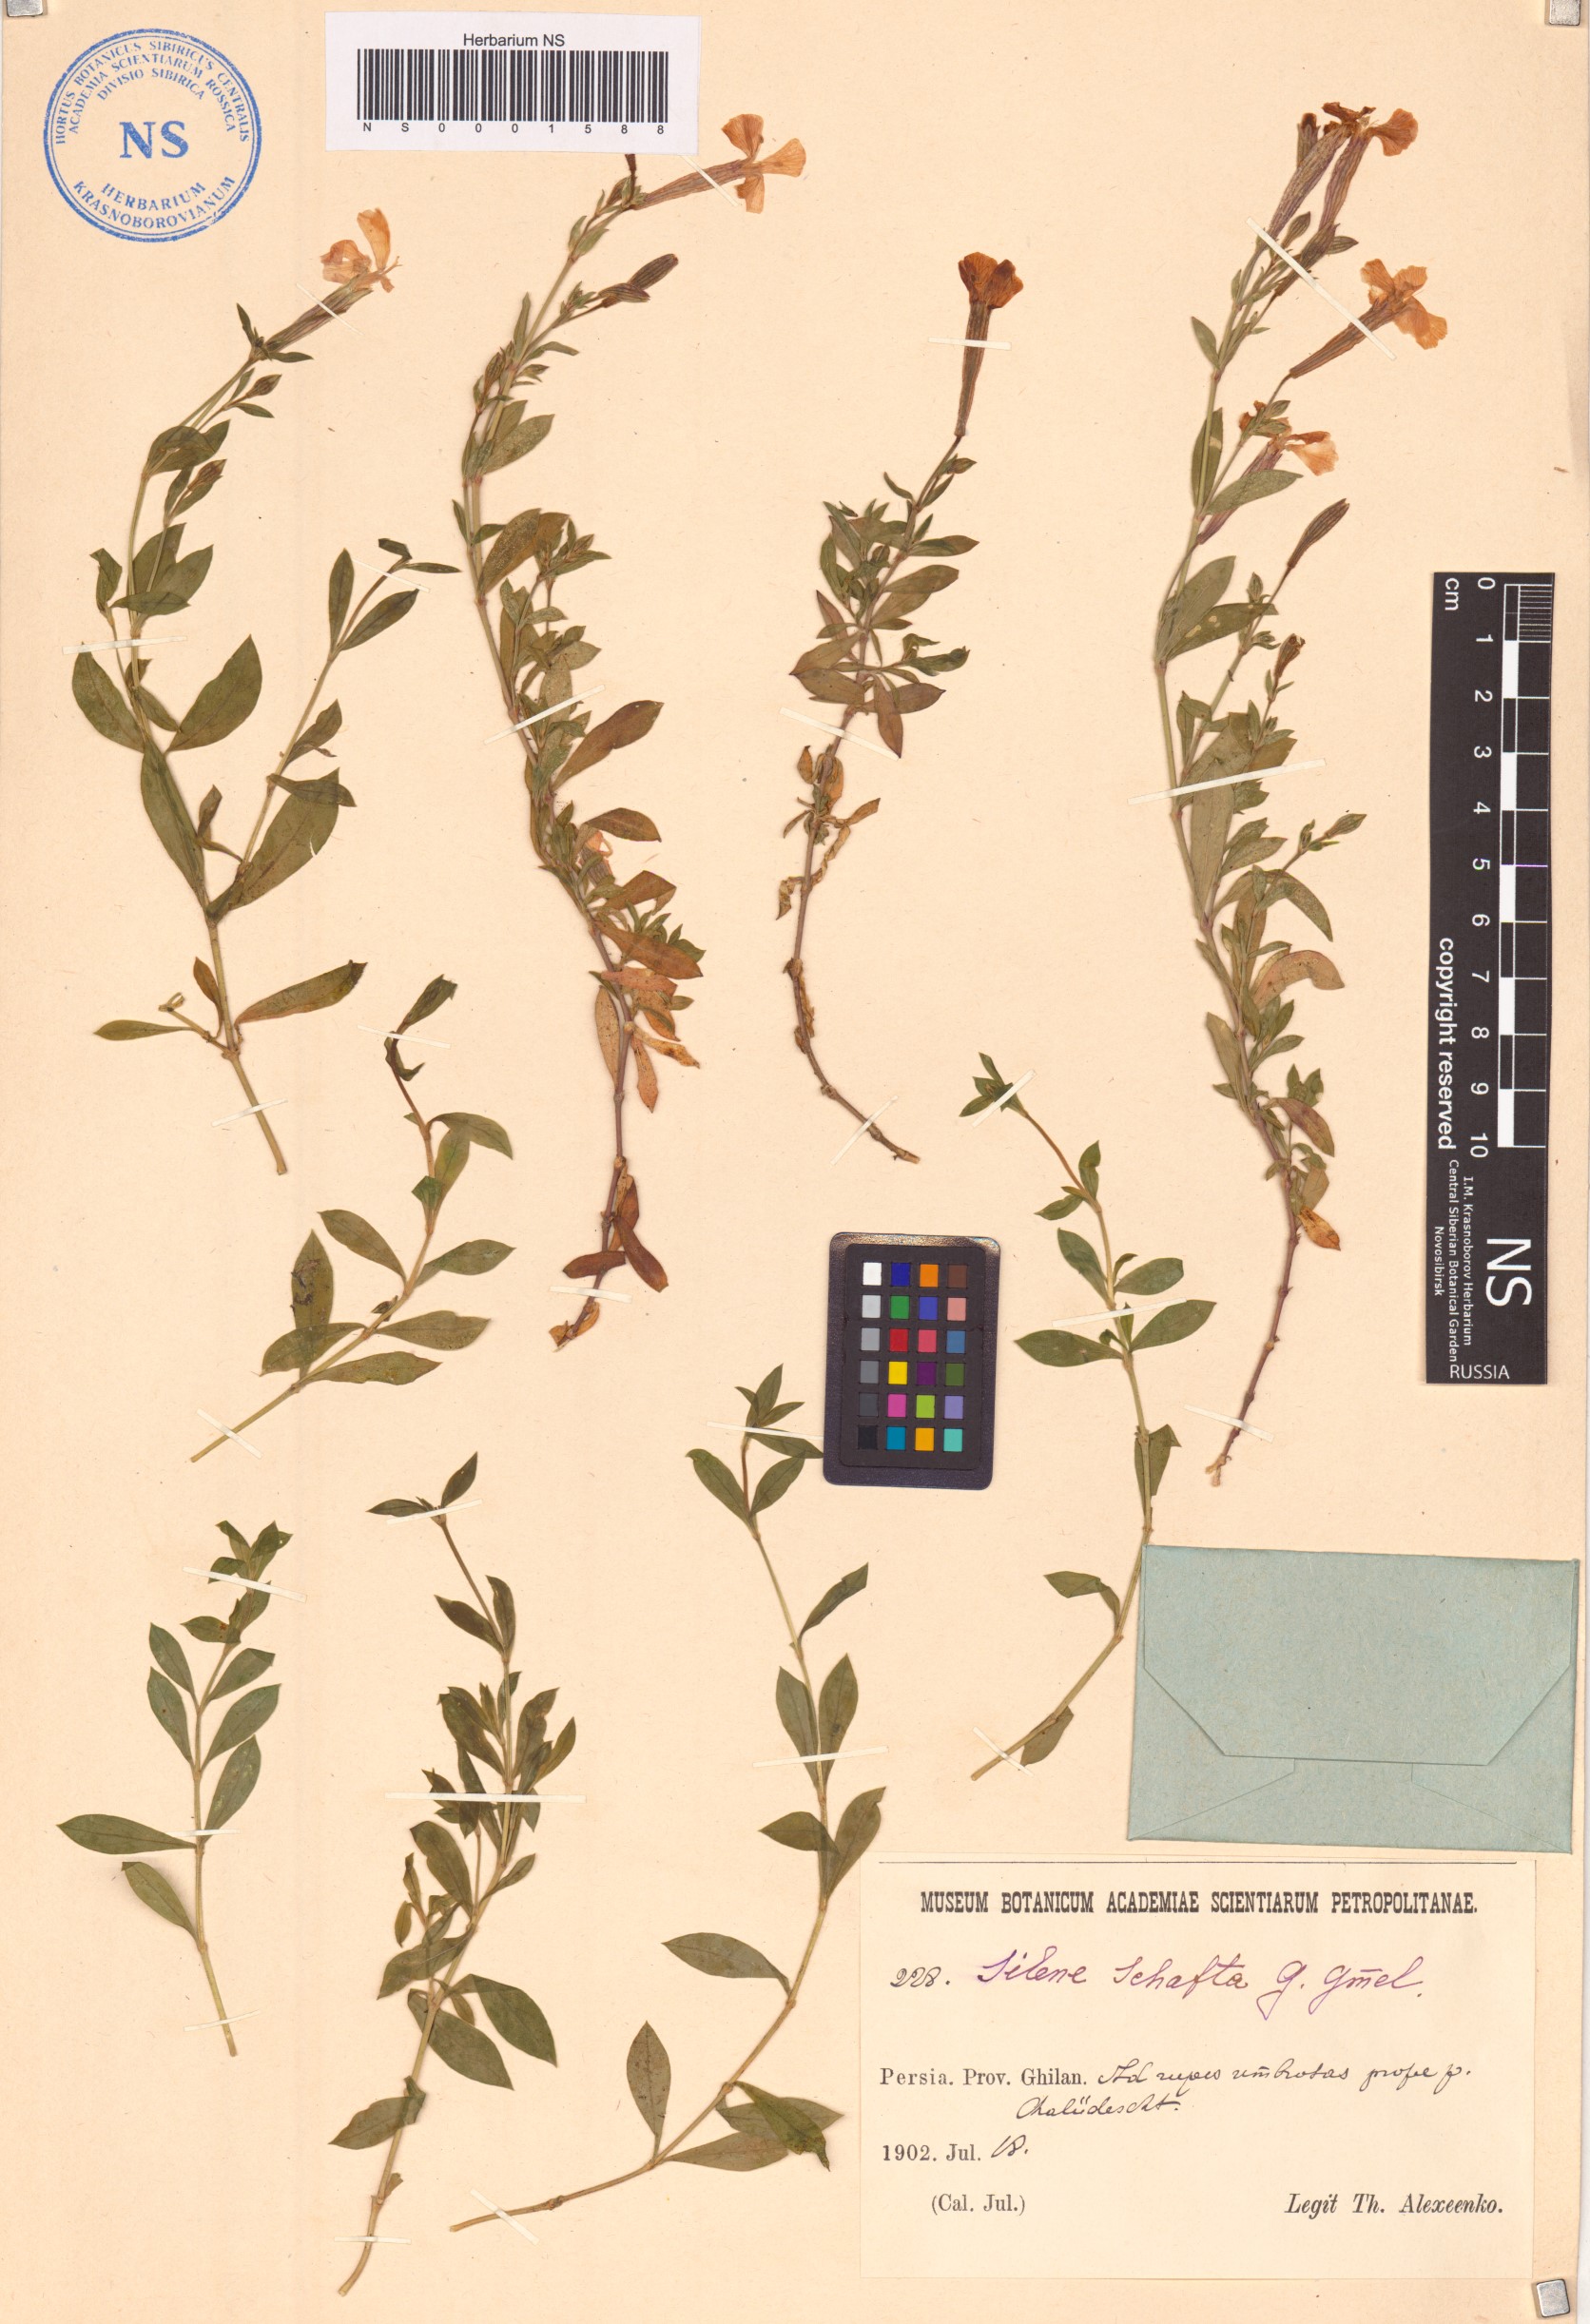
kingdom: Plantae
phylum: Tracheophyta
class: Magnoliopsida
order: Caryophyllales
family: Caryophyllaceae
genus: Silene
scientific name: Silene schafta
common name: Caucasian campion
